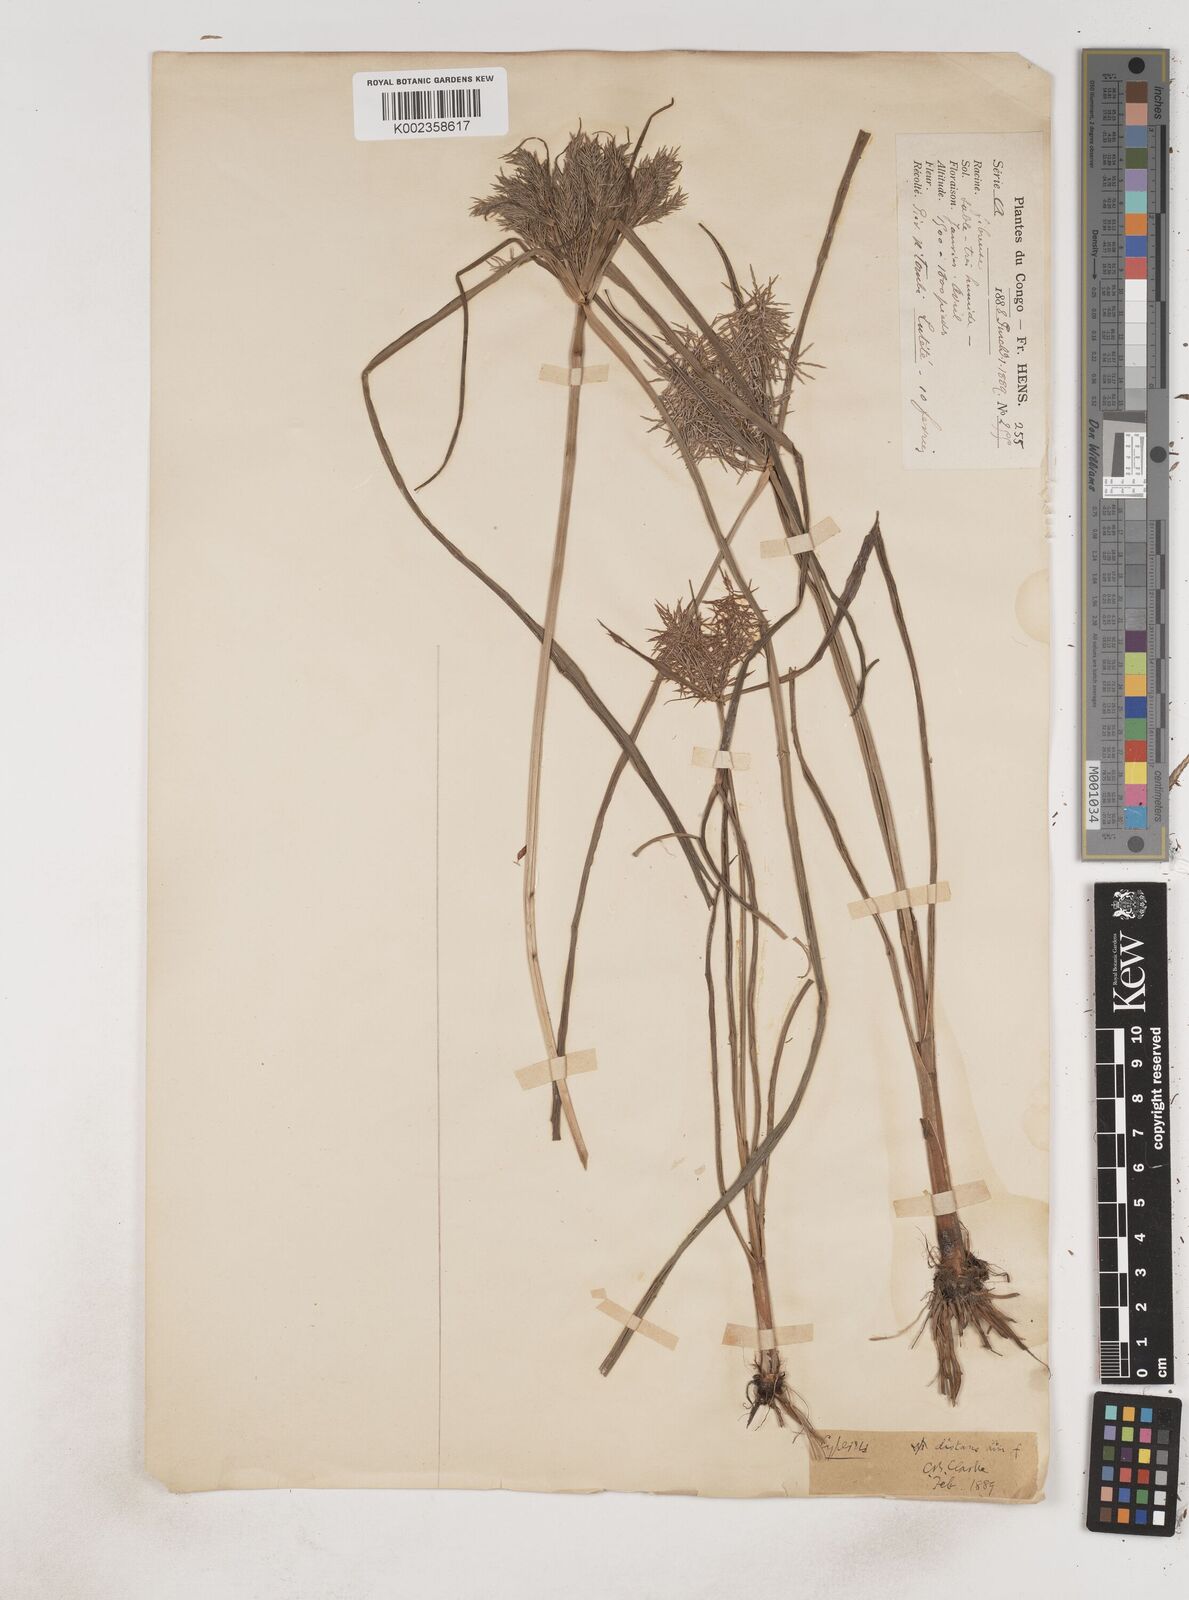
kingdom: Plantae
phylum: Tracheophyta
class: Liliopsida
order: Poales
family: Cyperaceae
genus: Cyperus
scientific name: Cyperus distans
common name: Slender cyperus
